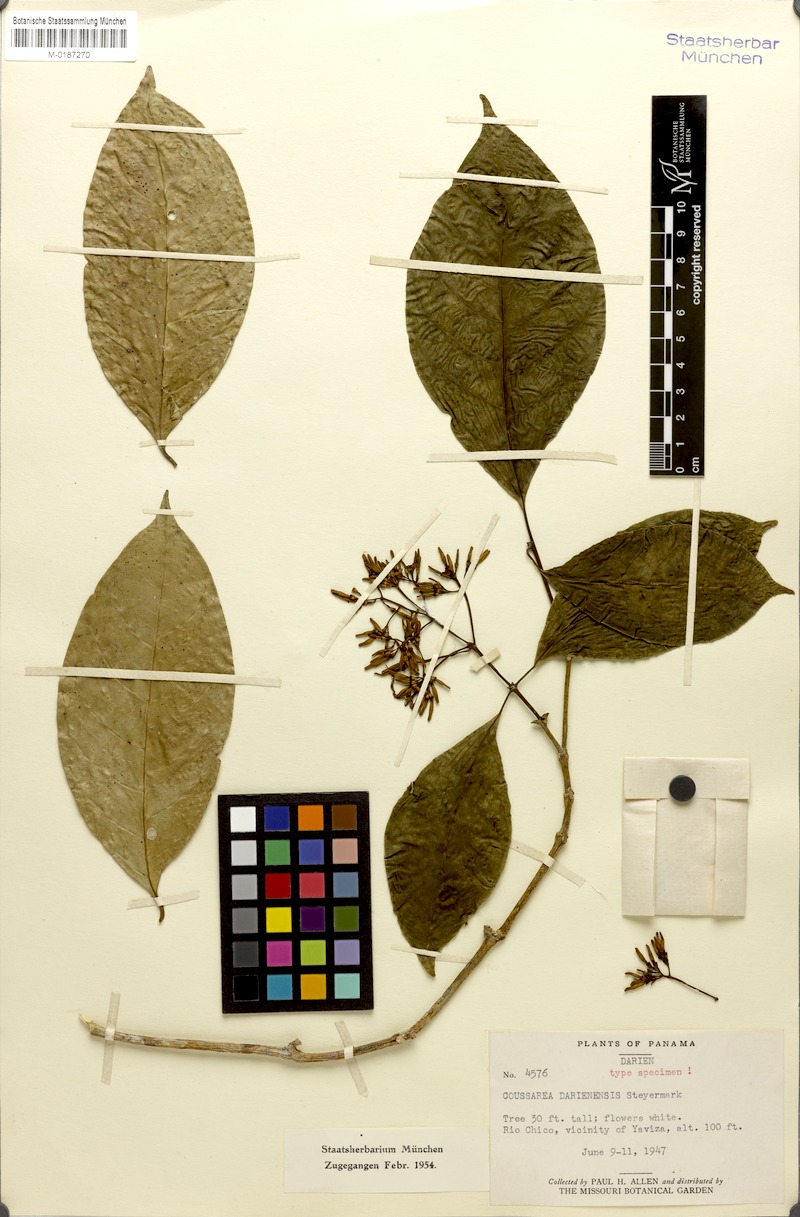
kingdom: Plantae
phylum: Tracheophyta
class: Magnoliopsida
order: Gentianales
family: Rubiaceae
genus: Coussarea
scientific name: Coussarea paniculata
